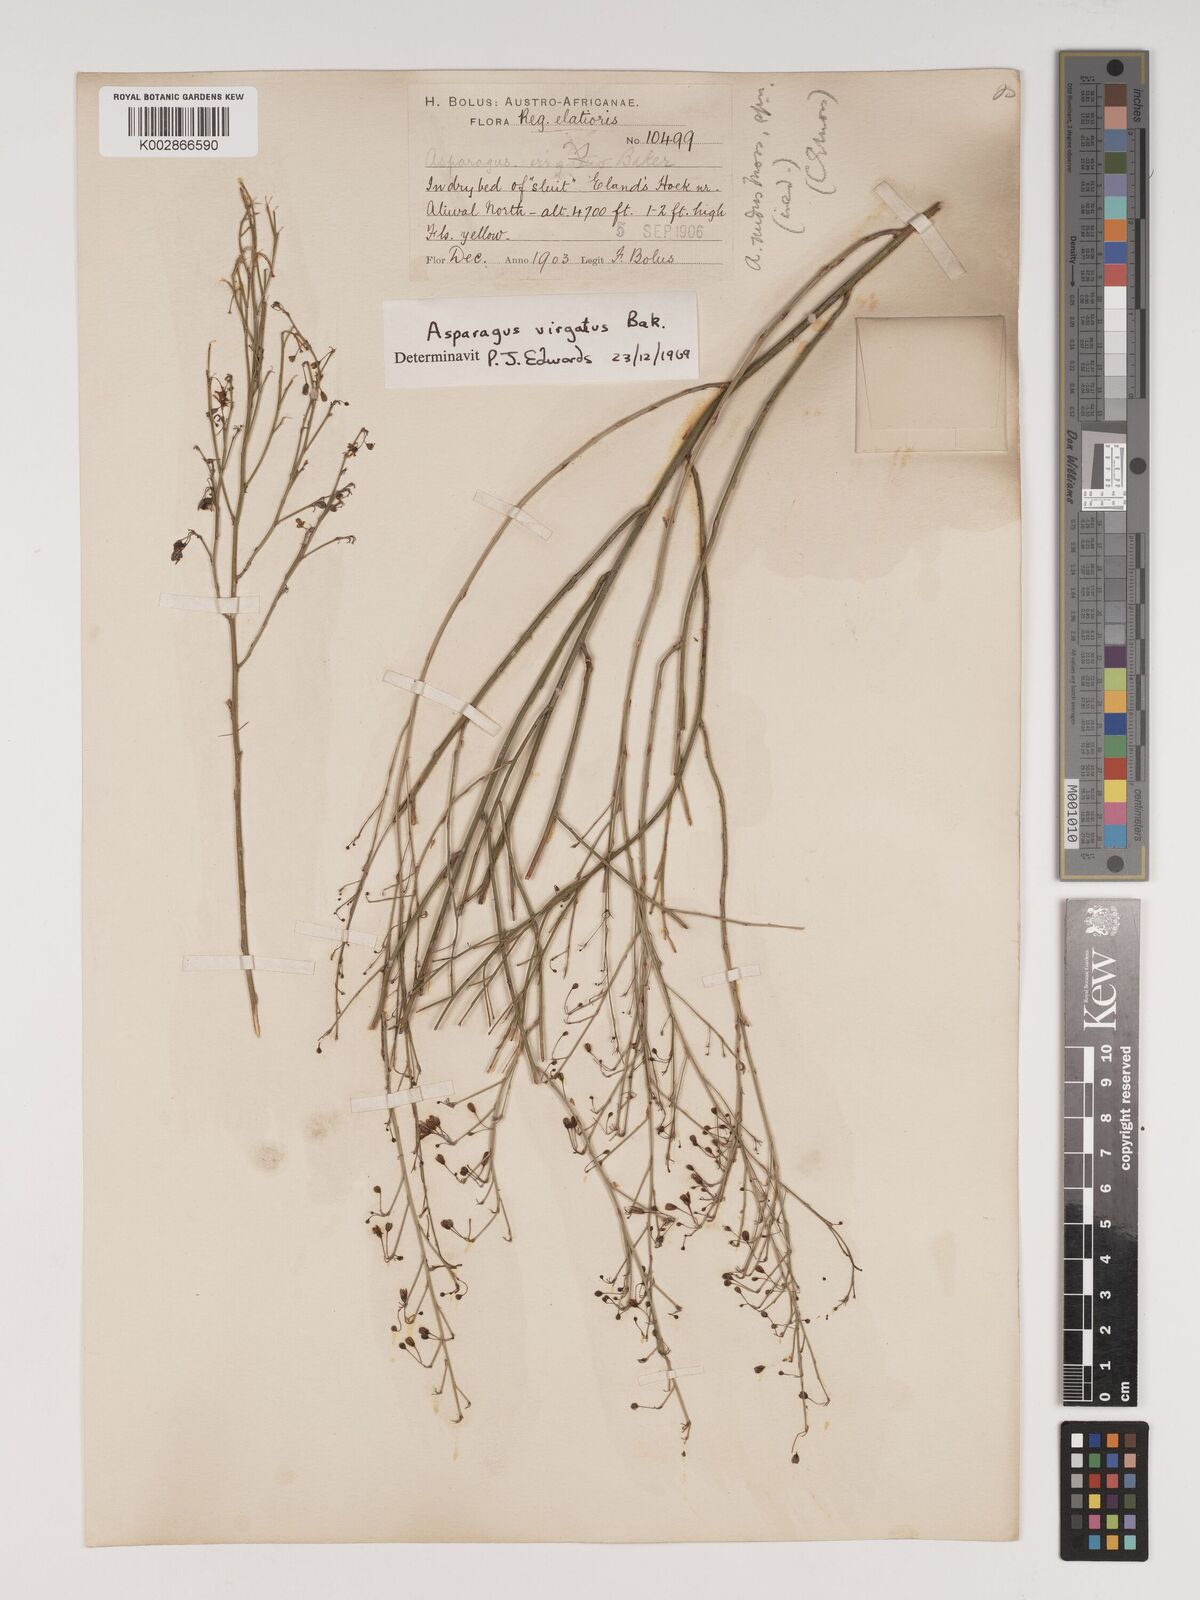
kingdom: Plantae
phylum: Tracheophyta
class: Liliopsida
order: Asparagales
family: Asparagaceae
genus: Asparagus
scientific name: Asparagus virgatus
